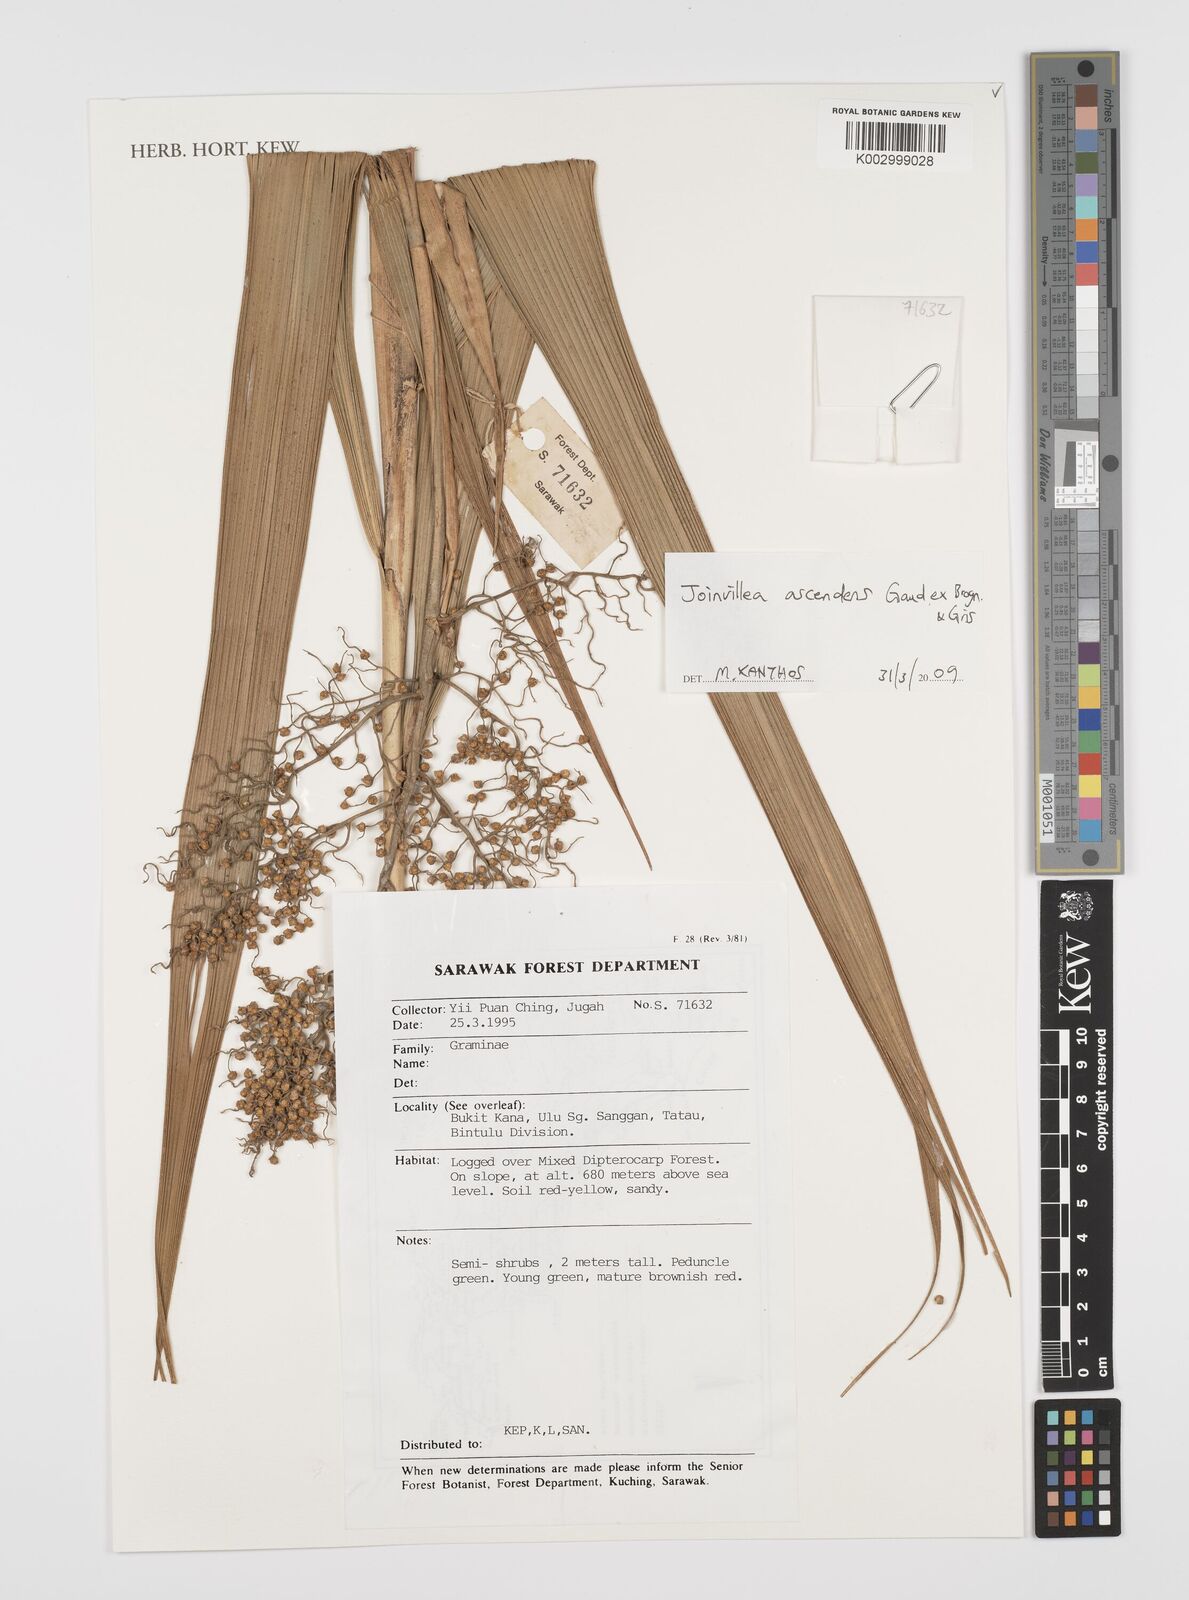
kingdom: Plantae
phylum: Tracheophyta
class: Liliopsida
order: Poales
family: Joinvilleaceae
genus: Joinvillea
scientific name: Joinvillea borneensis
